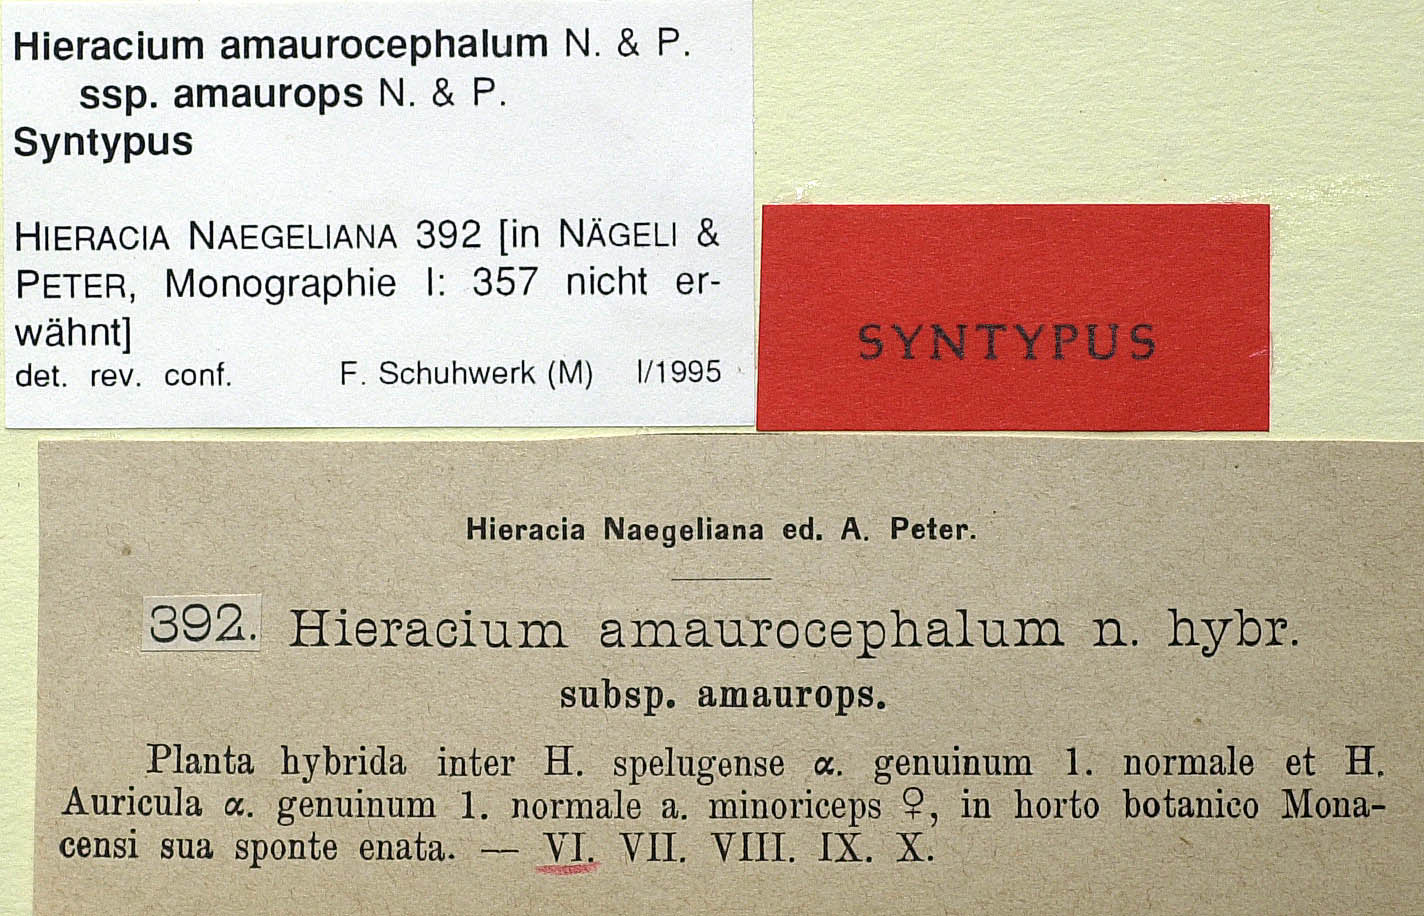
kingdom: Plantae
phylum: Tracheophyta
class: Magnoliopsida
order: Asterales
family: Asteraceae
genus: Pilosella
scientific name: Pilosella amaurocephala
